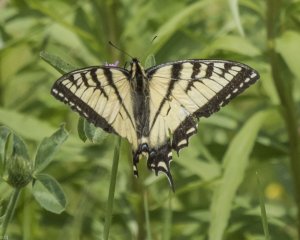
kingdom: Animalia
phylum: Arthropoda
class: Insecta
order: Lepidoptera
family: Papilionidae
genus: Pterourus
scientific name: Pterourus canadensis
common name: Canadian Tiger Swallowtail
